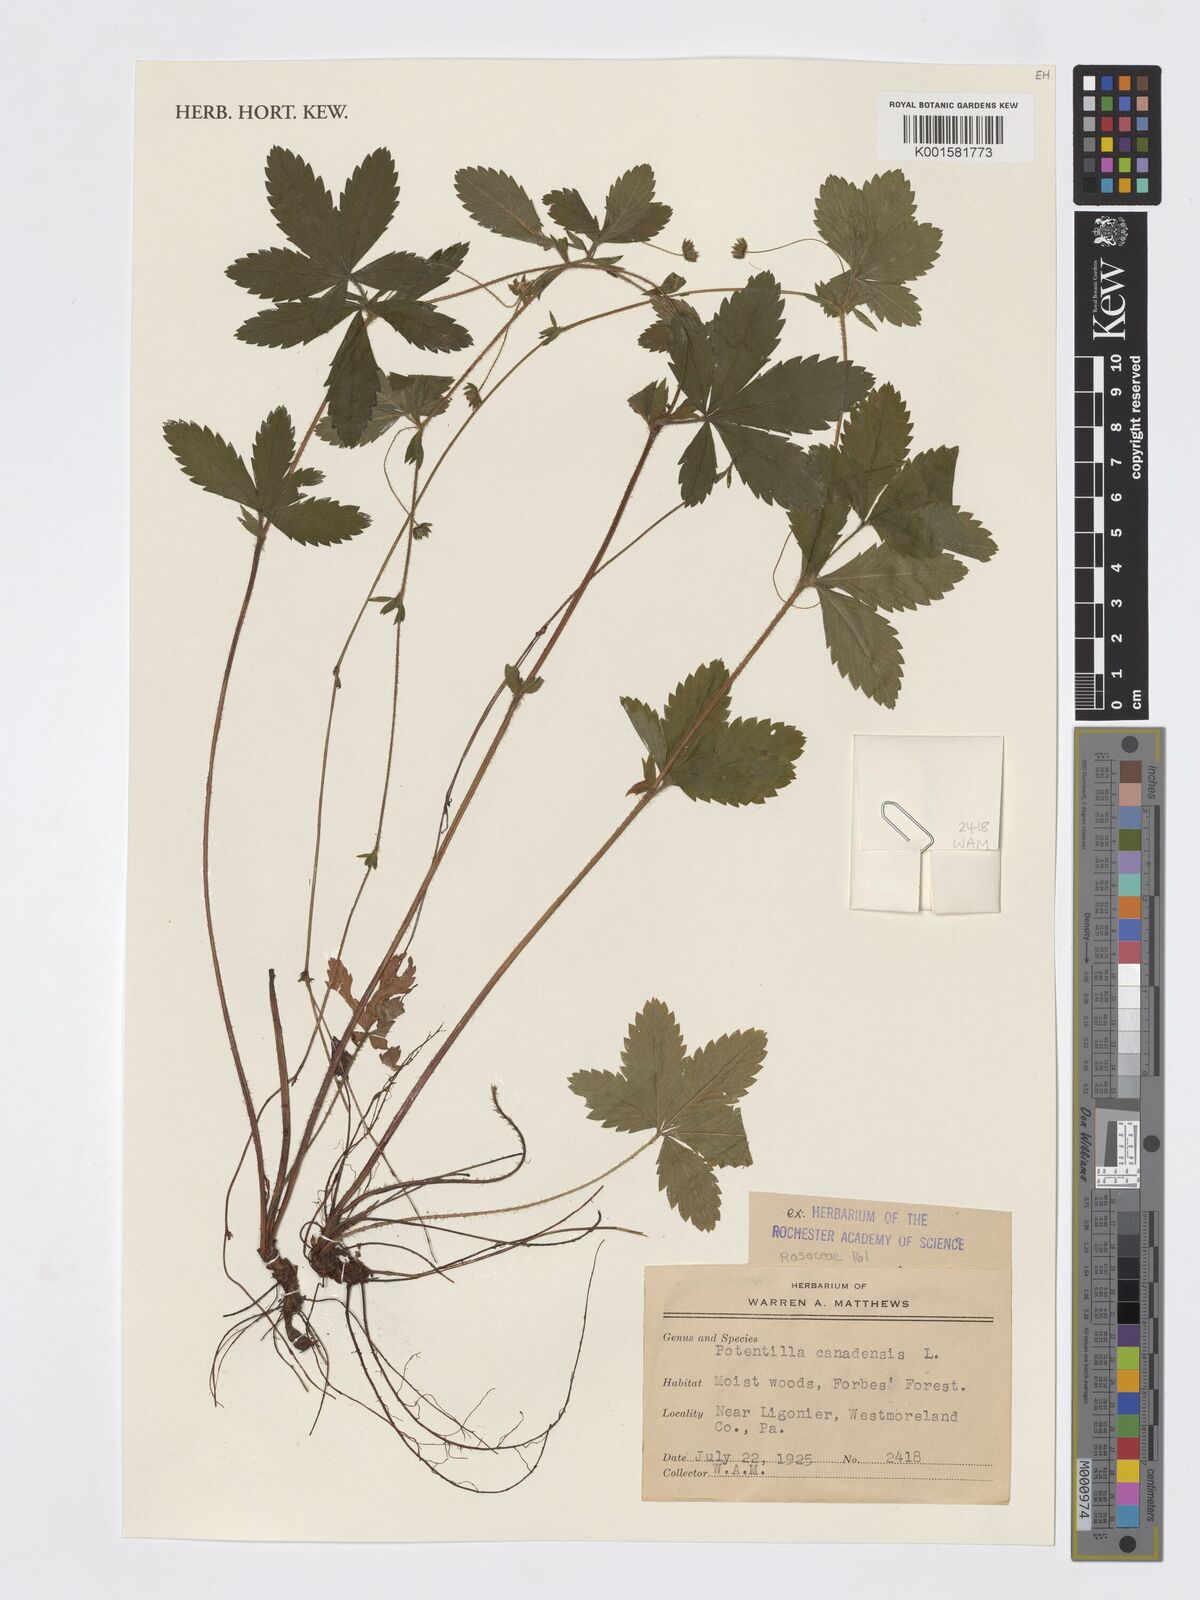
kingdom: Plantae
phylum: Tracheophyta
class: Magnoliopsida
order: Rosales
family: Rosaceae
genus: Potentilla
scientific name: Potentilla canadensis
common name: Canada cinquefoil
